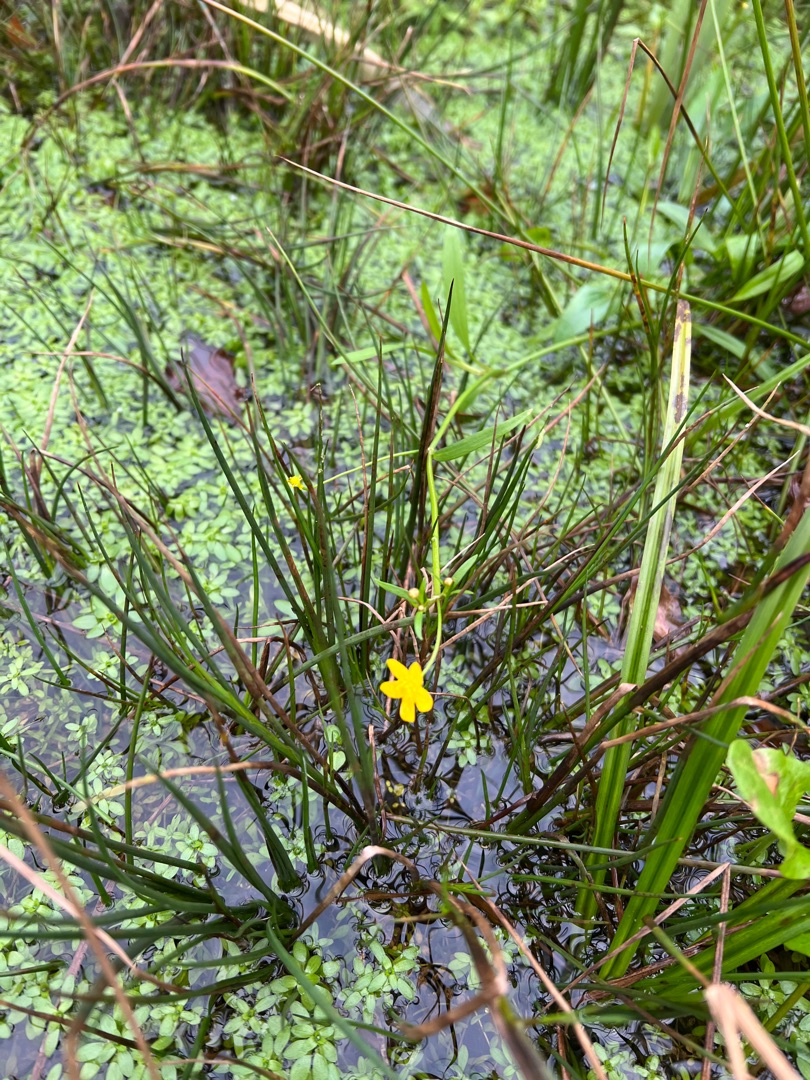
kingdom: Plantae
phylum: Tracheophyta
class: Magnoliopsida
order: Ranunculales
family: Ranunculaceae
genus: Ranunculus
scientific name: Ranunculus flammula
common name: Kær-ranunkel
